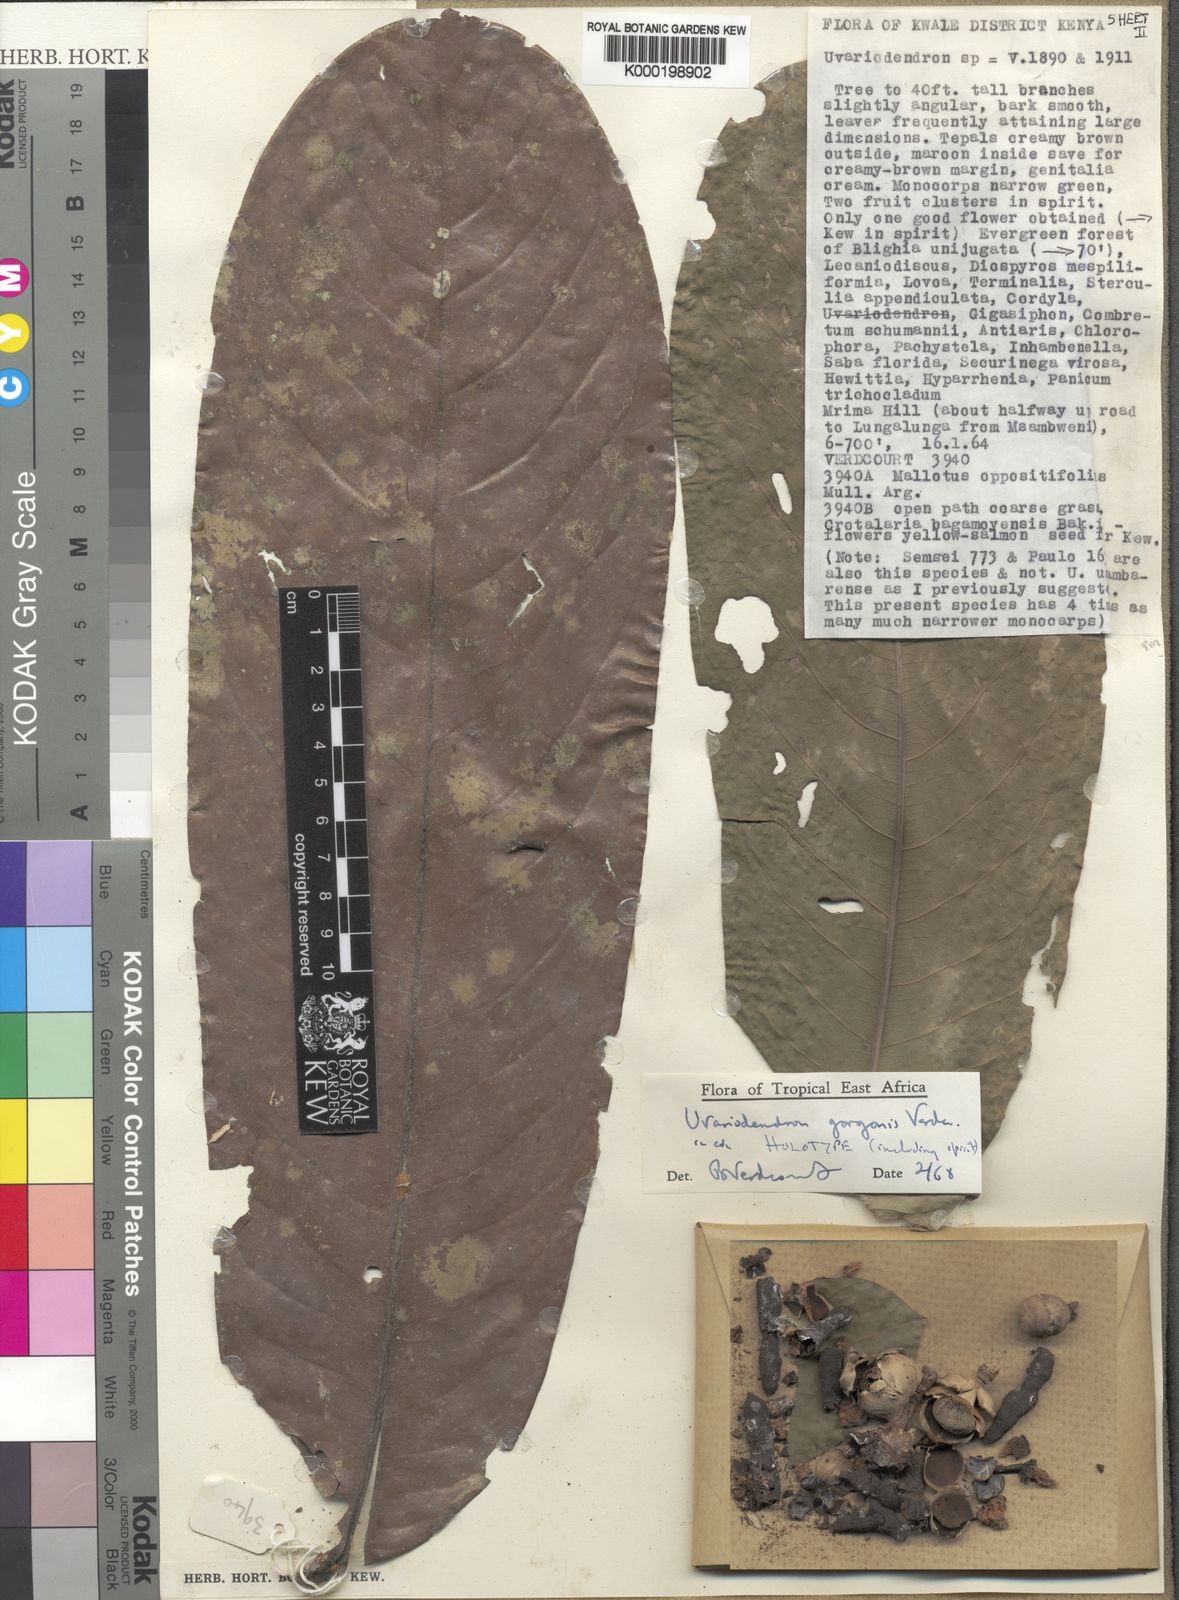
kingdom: Plantae
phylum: Tracheophyta
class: Magnoliopsida
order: Magnoliales
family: Annonaceae
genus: Uvariodendron
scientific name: Uvariodendron gorgonis
